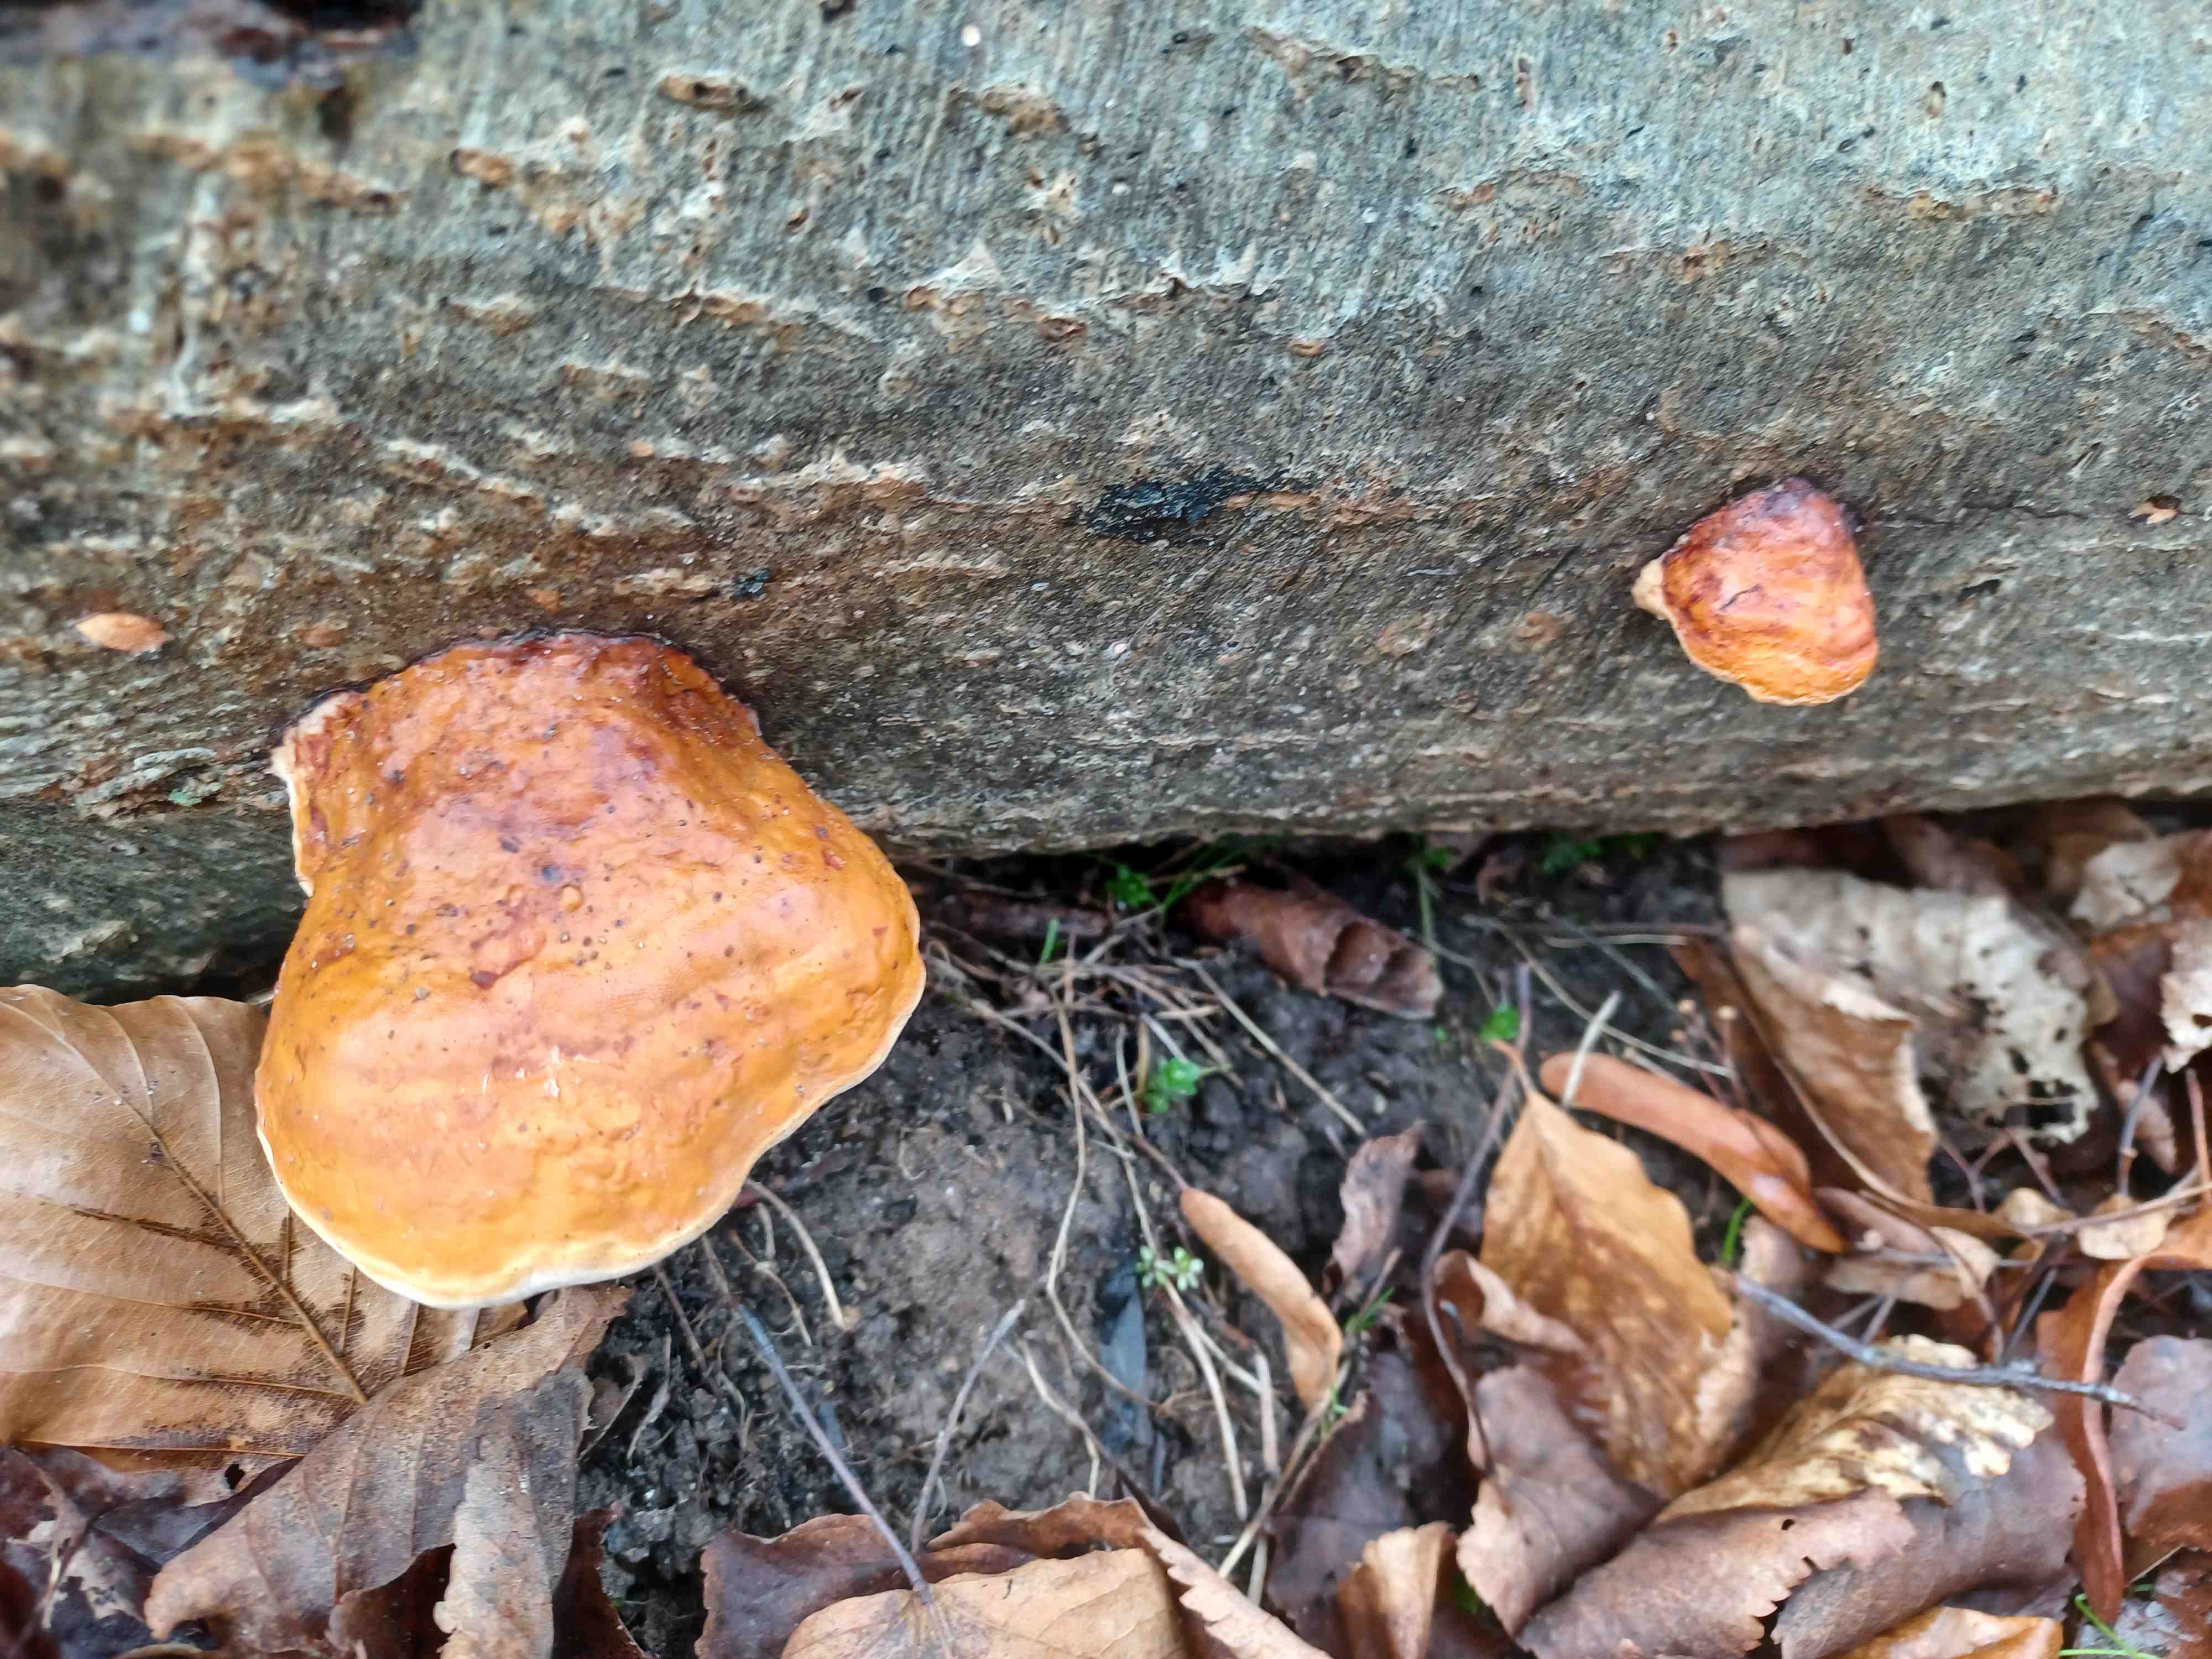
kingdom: Fungi
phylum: Basidiomycota
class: Agaricomycetes
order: Polyporales
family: Fomitopsidaceae
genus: Fomitopsis
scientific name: Fomitopsis pinicola
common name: randbæltet hovporesvamp
